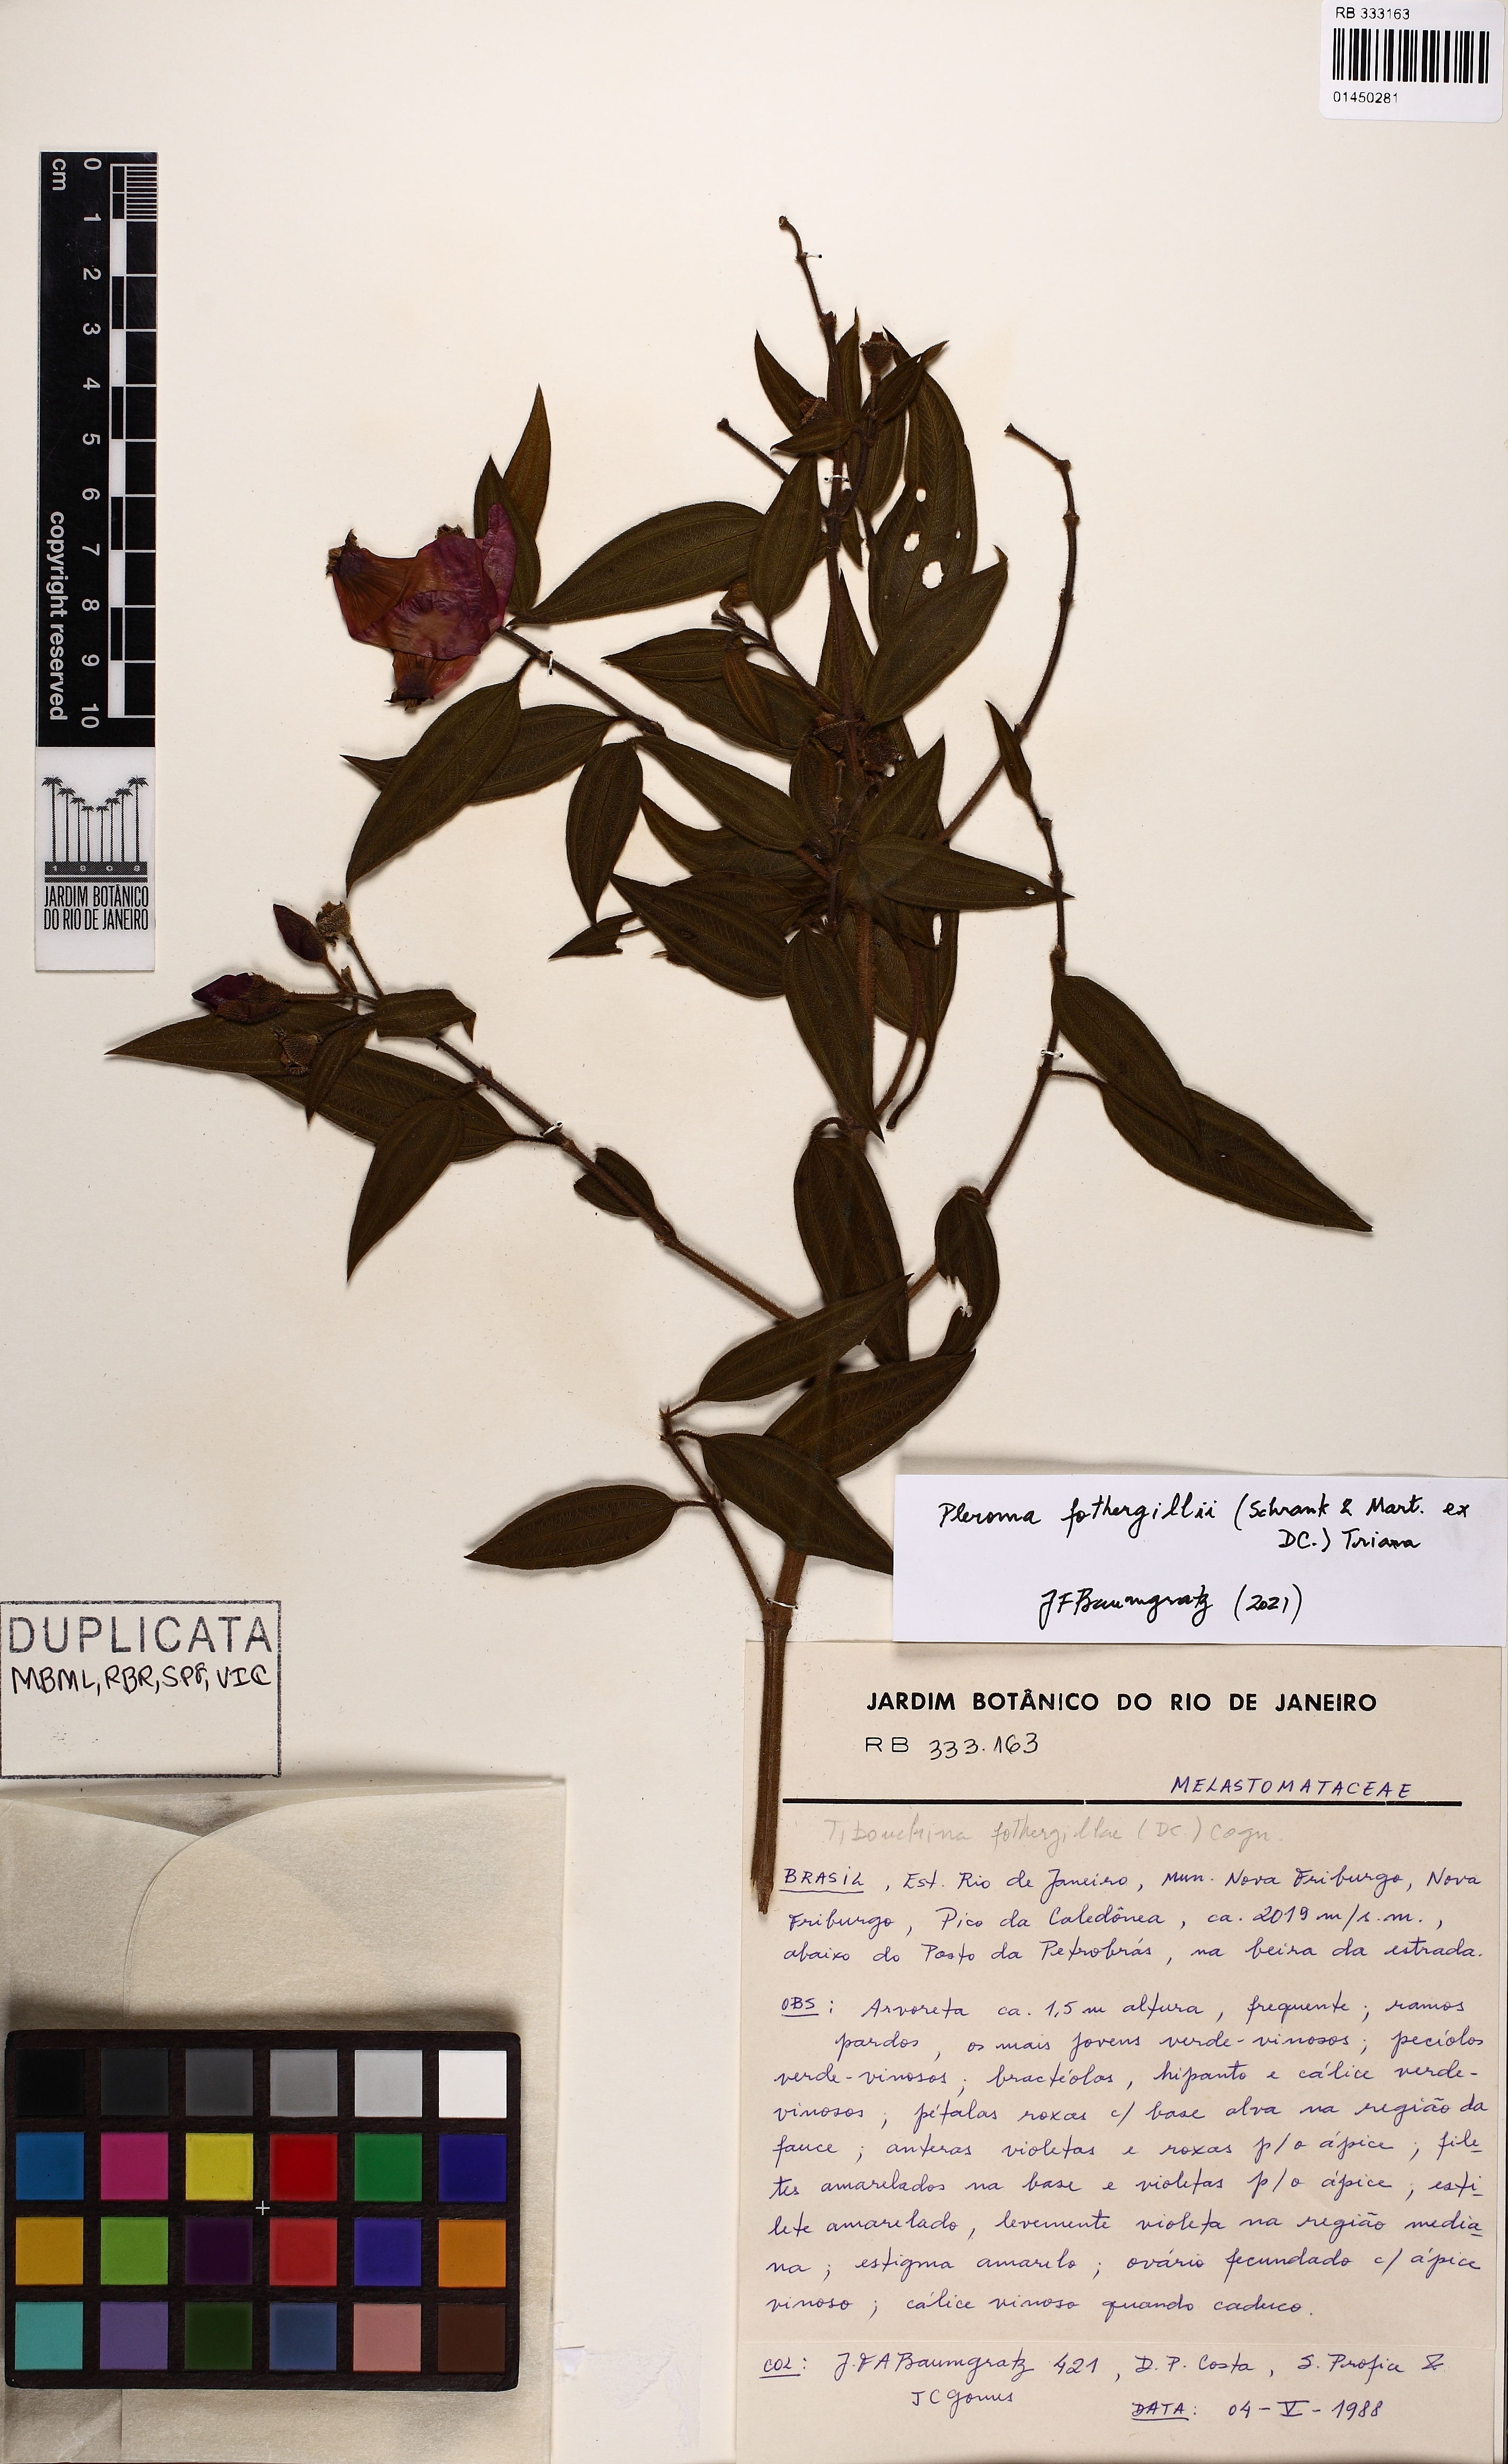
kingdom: Plantae
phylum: Tracheophyta
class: Magnoliopsida
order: Myrtales
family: Melastomataceae
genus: Pleroma
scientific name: Pleroma fothergillii
